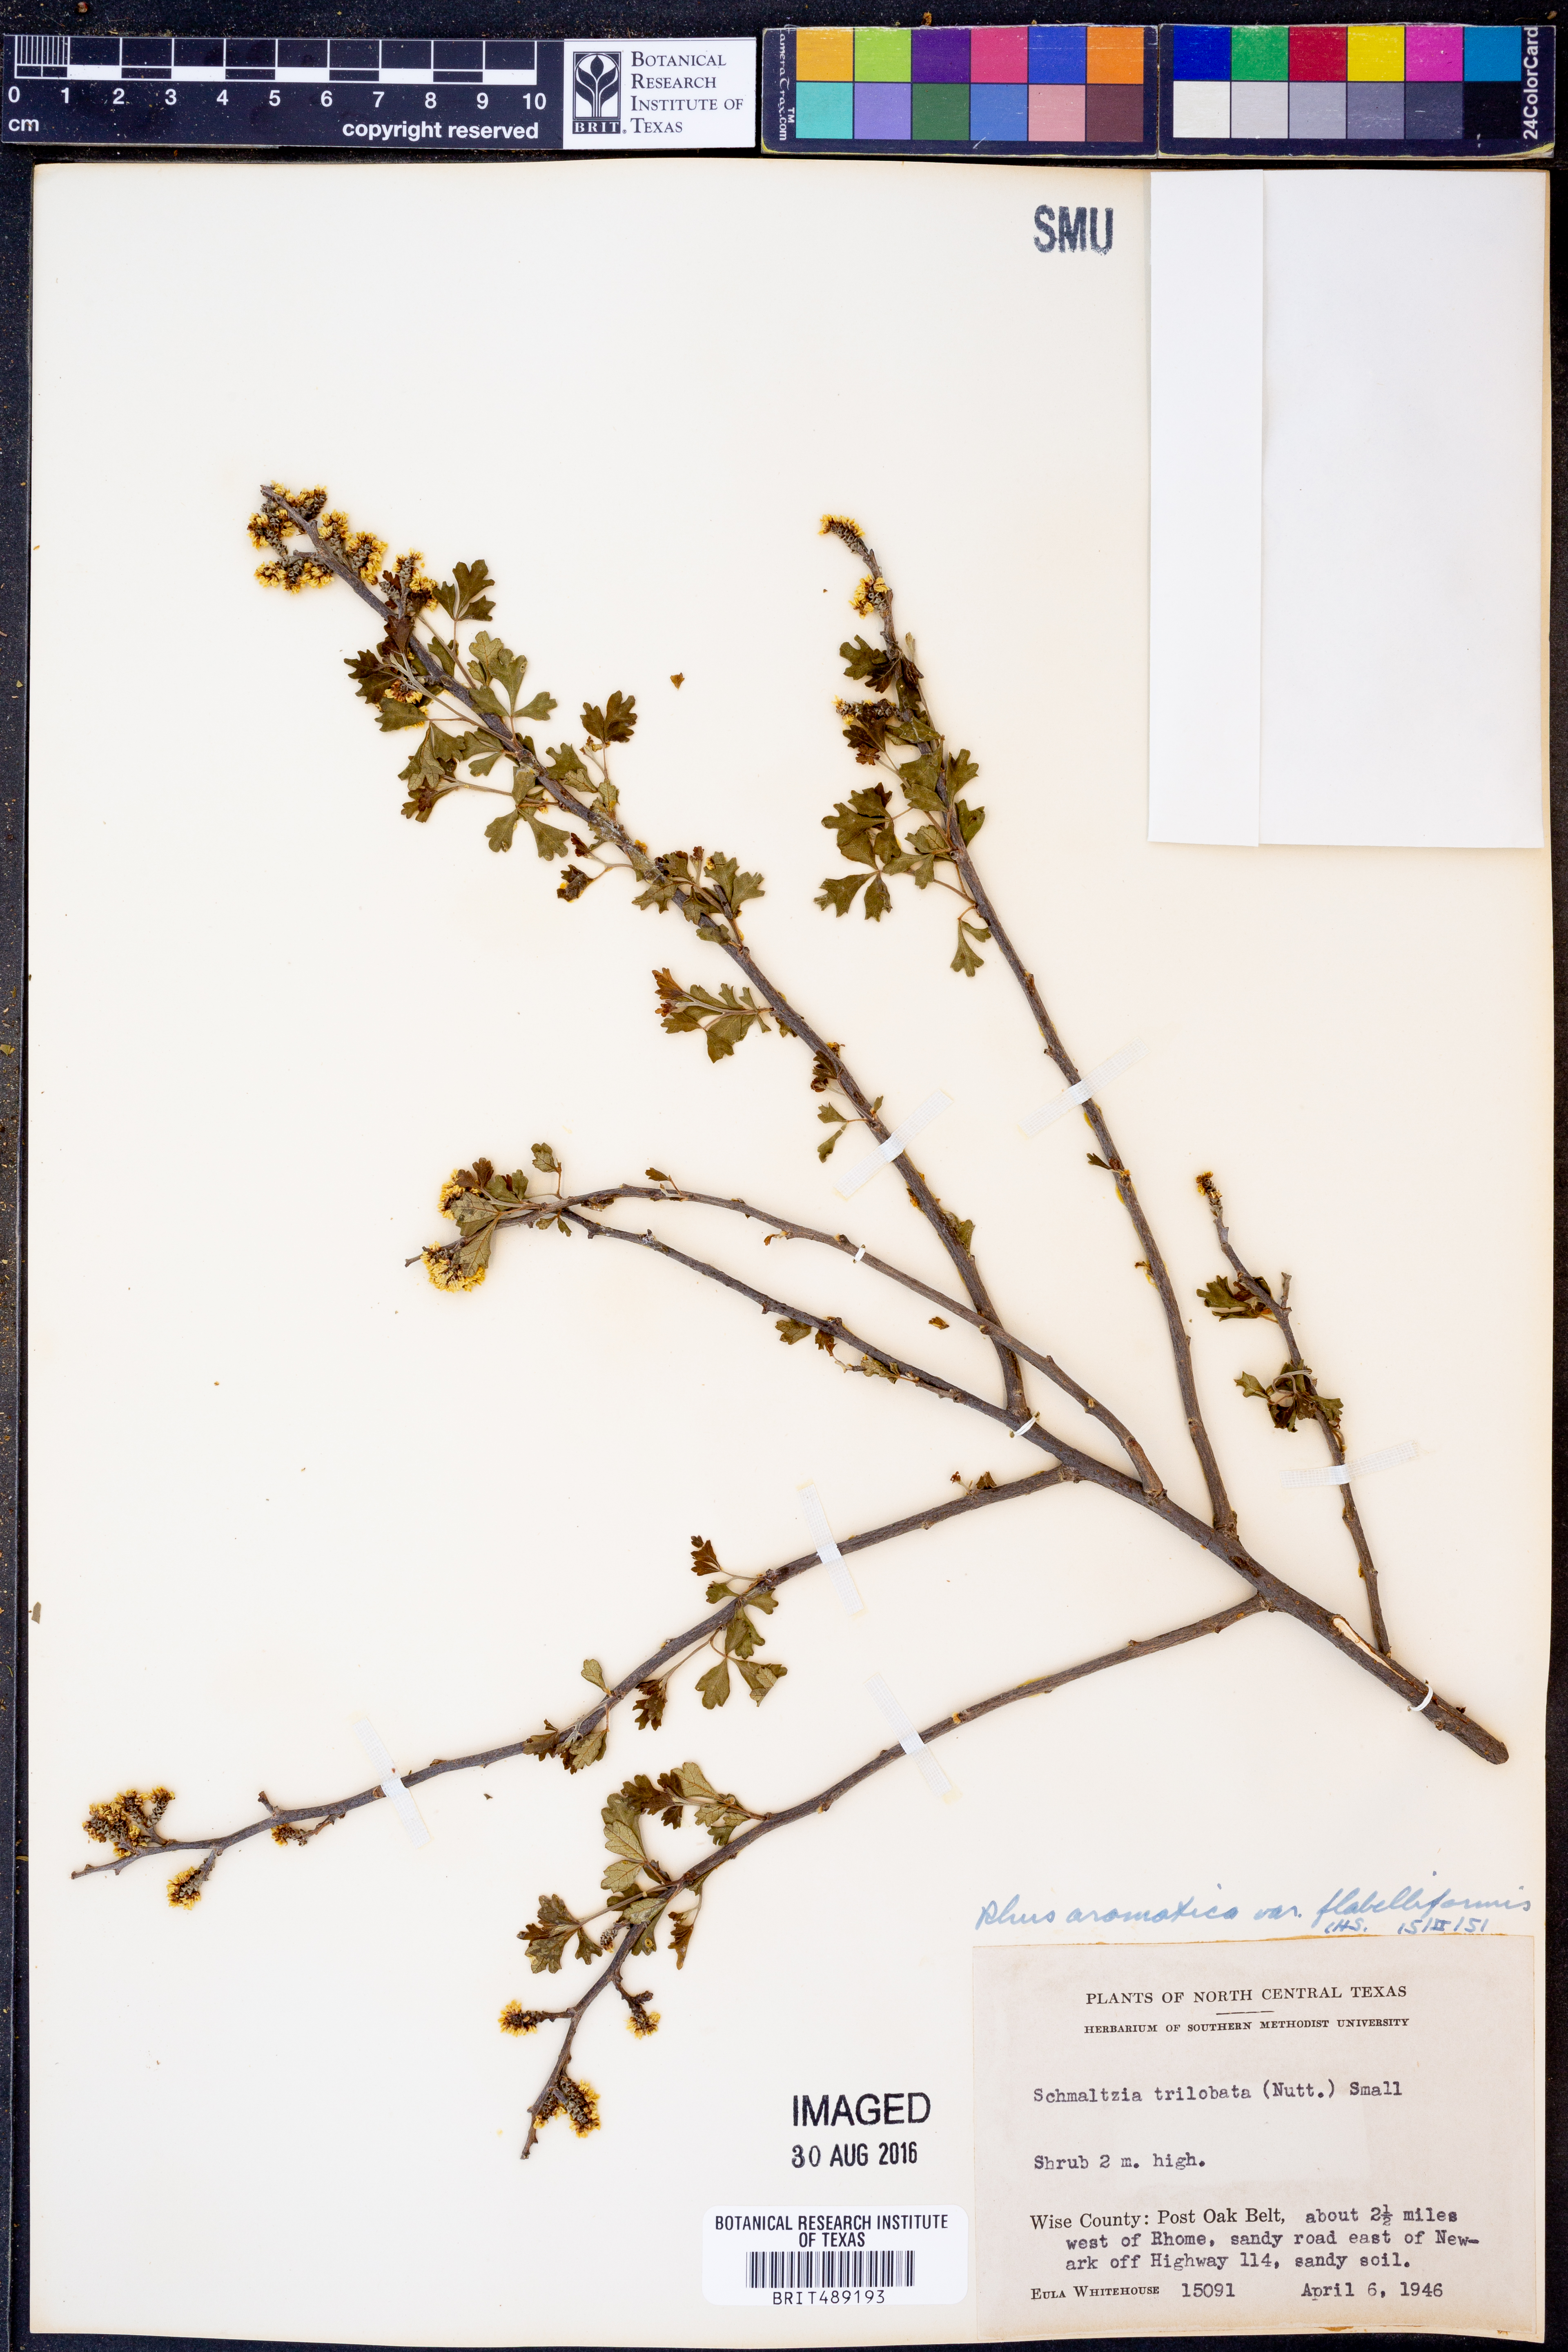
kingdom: Plantae
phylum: Tracheophyta
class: Magnoliopsida
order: Sapindales
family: Anacardiaceae
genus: Rhus
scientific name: Rhus trilobata
